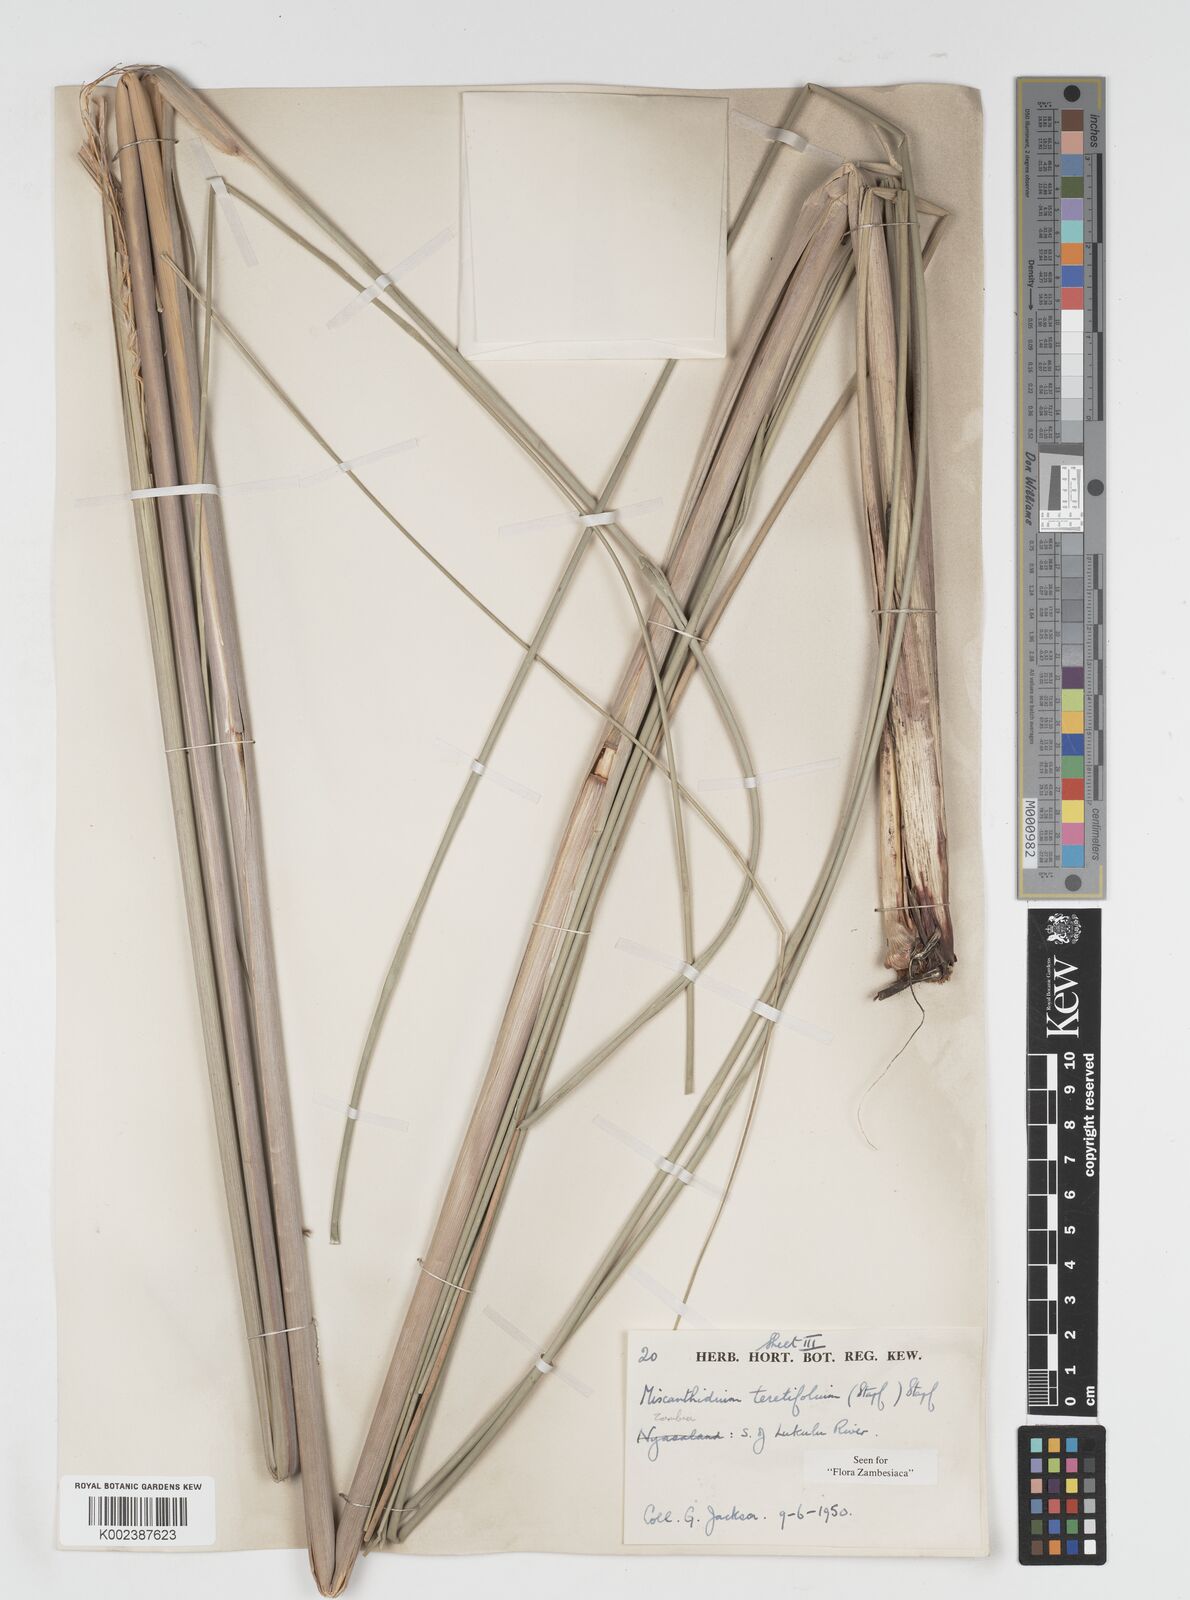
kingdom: Plantae
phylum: Tracheophyta
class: Liliopsida
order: Poales
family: Poaceae
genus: Miscanthidium
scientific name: Miscanthidium junceum
